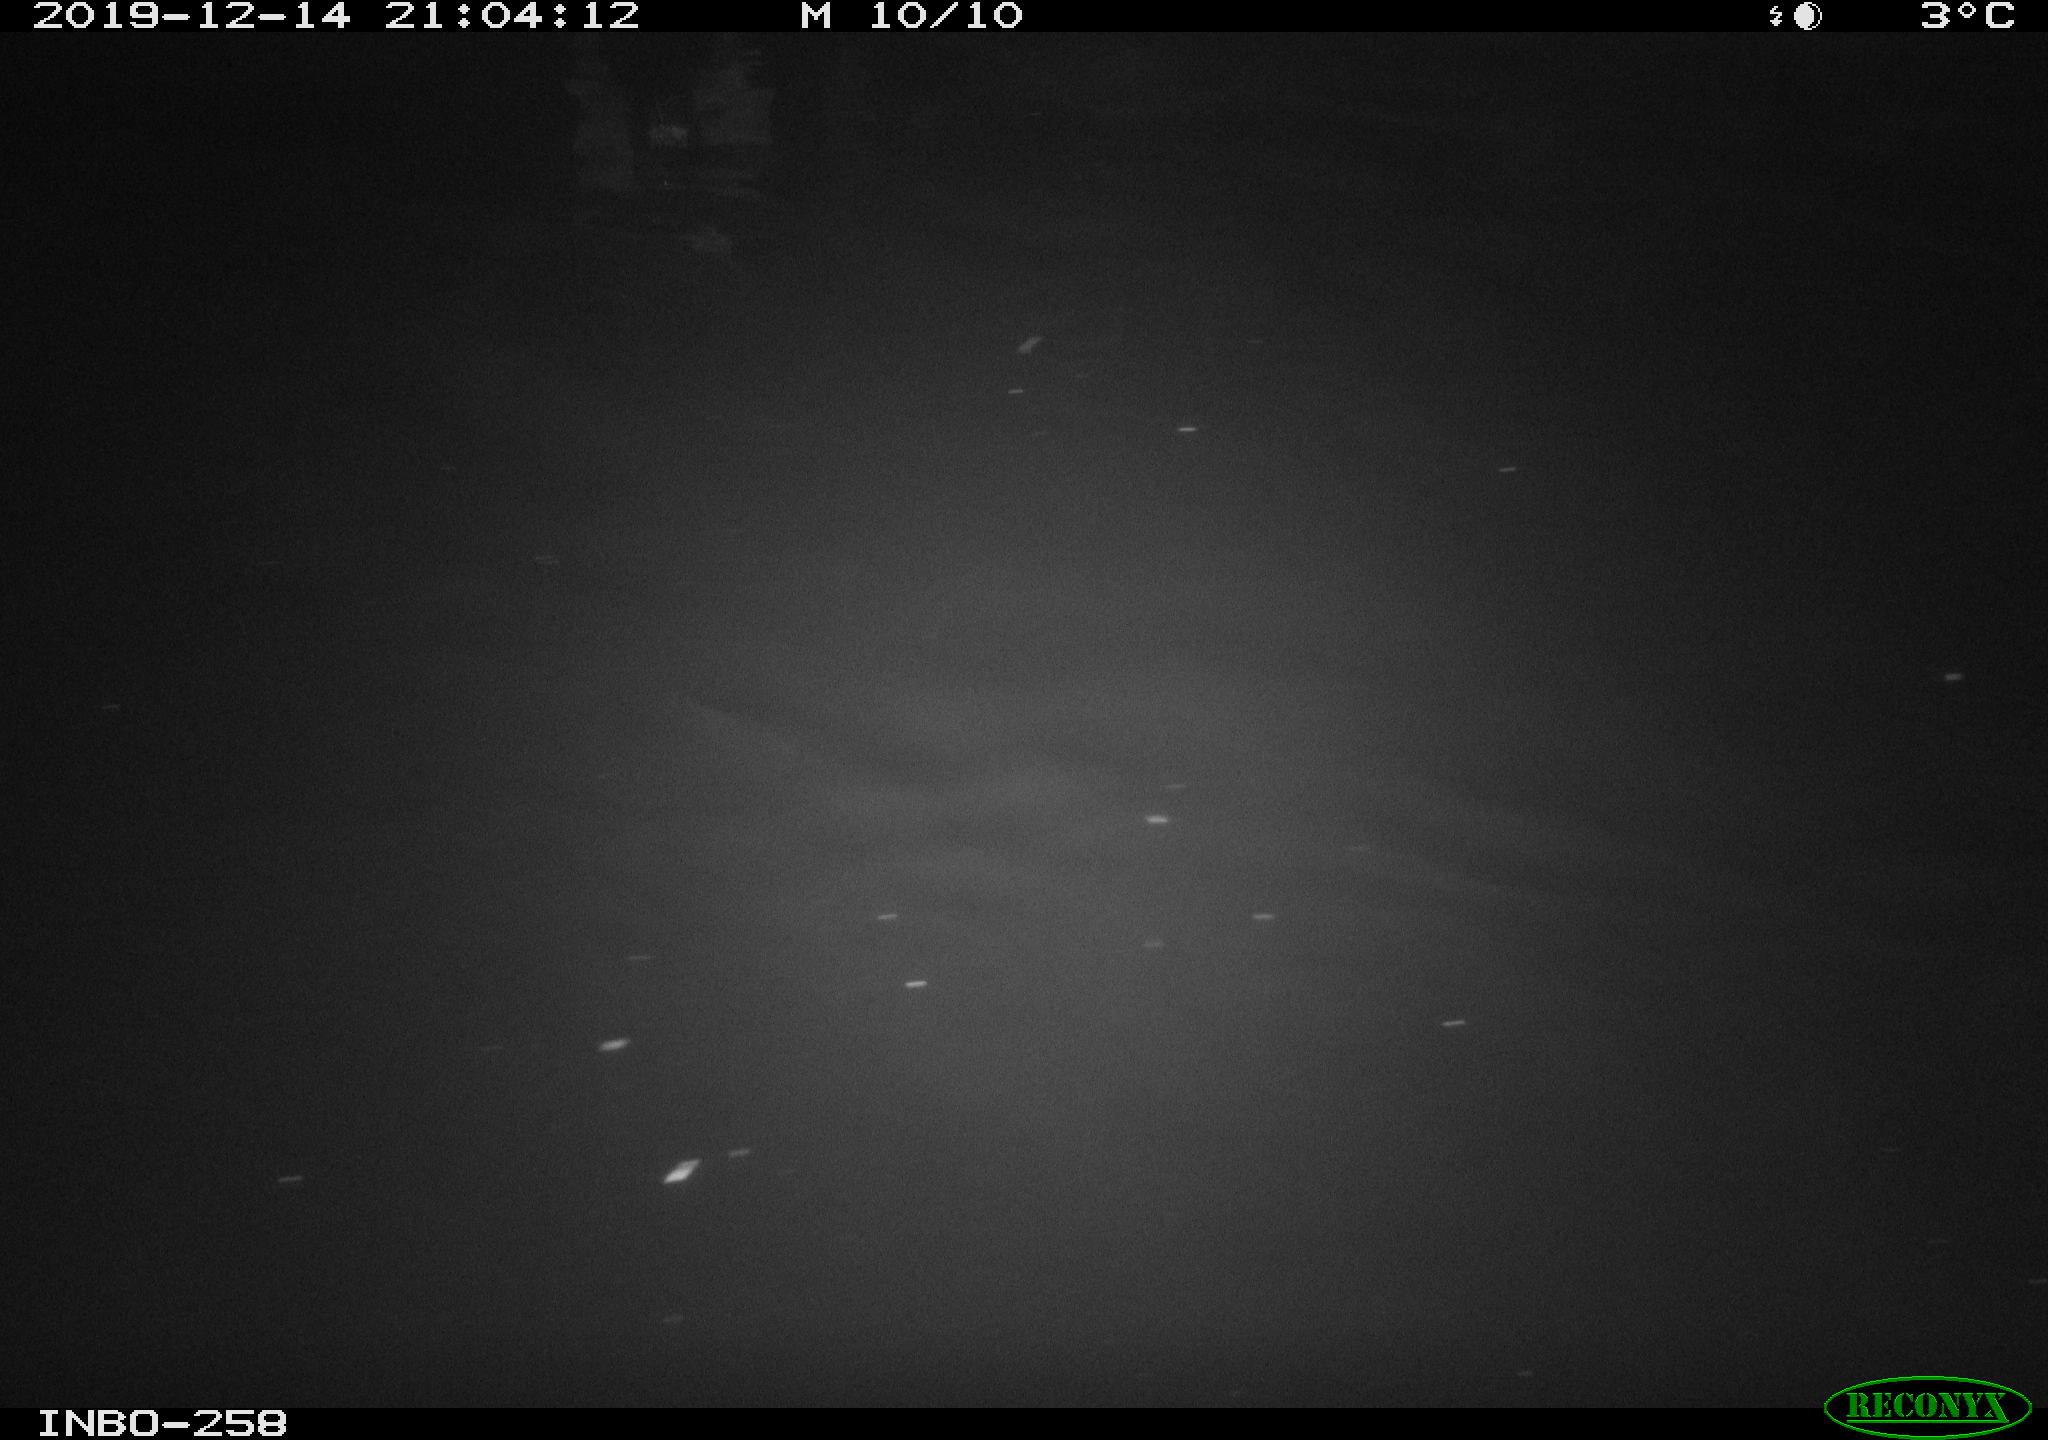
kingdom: Animalia
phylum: Chordata
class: Aves
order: Anseriformes
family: Anatidae
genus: Anas
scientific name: Anas platyrhynchos
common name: Mallard
